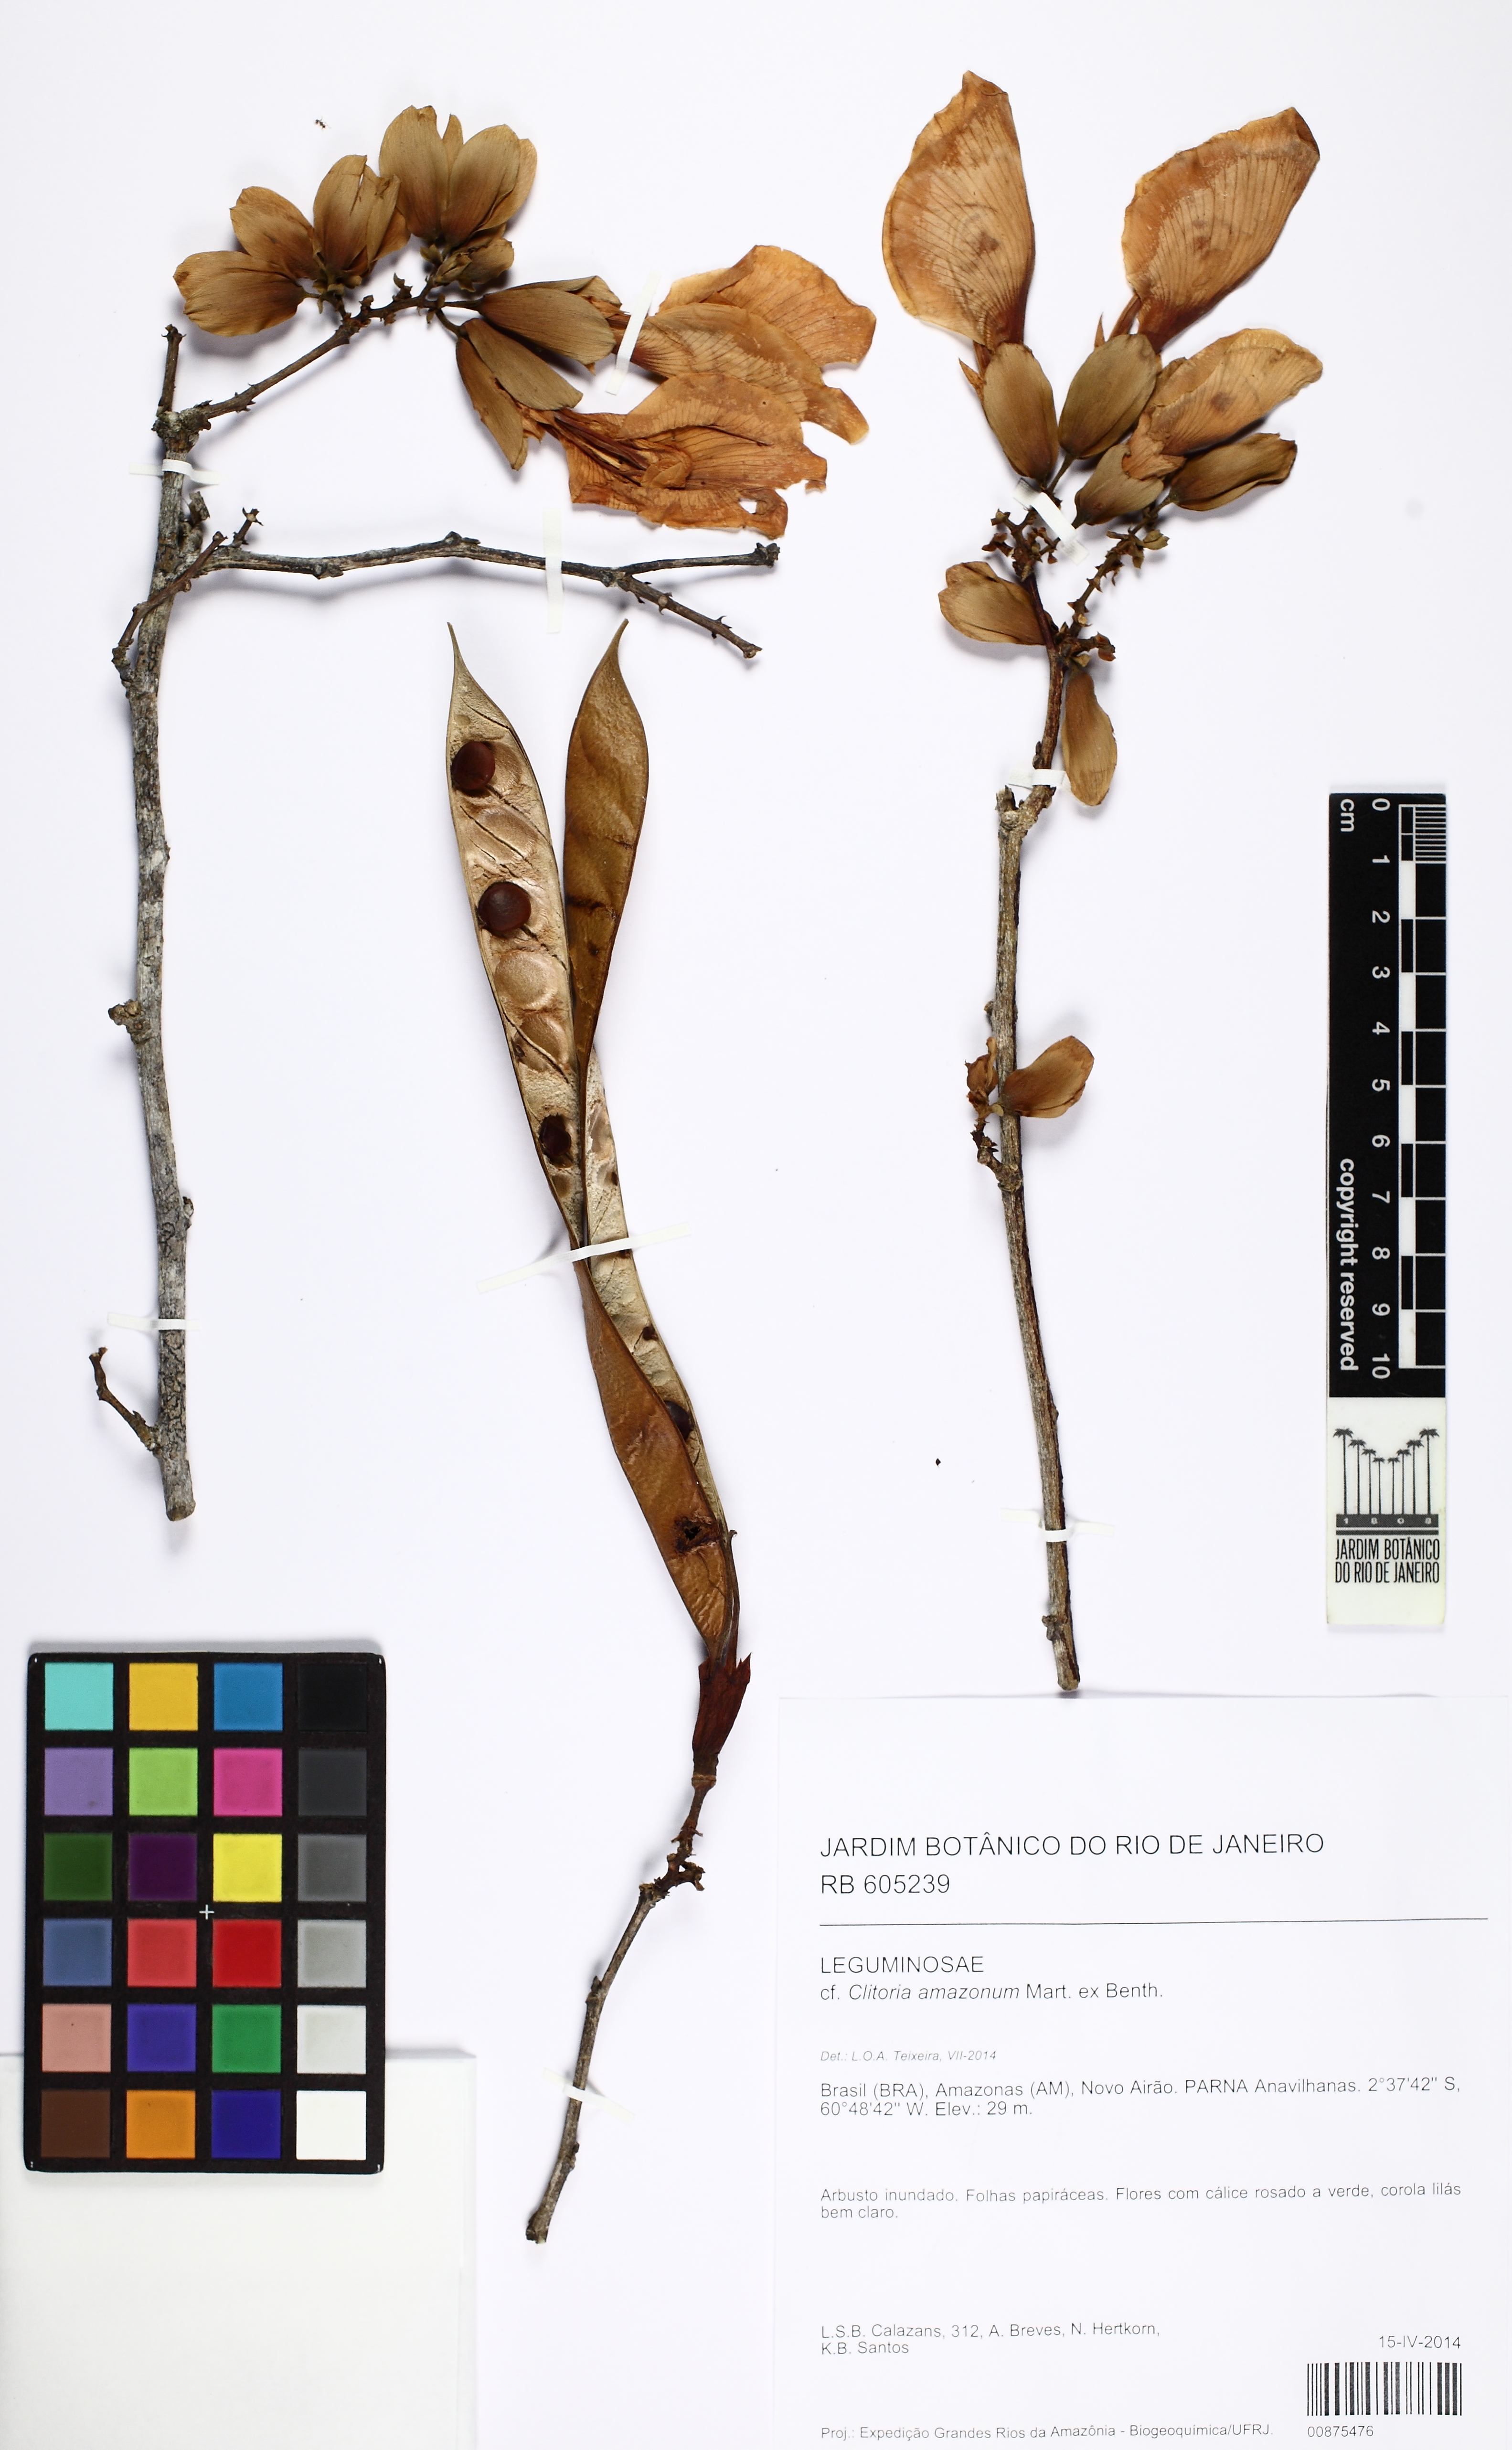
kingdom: Plantae
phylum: Tracheophyta
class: Magnoliopsida
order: Fabales
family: Fabaceae
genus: Clitoria
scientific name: Clitoria amazonum
